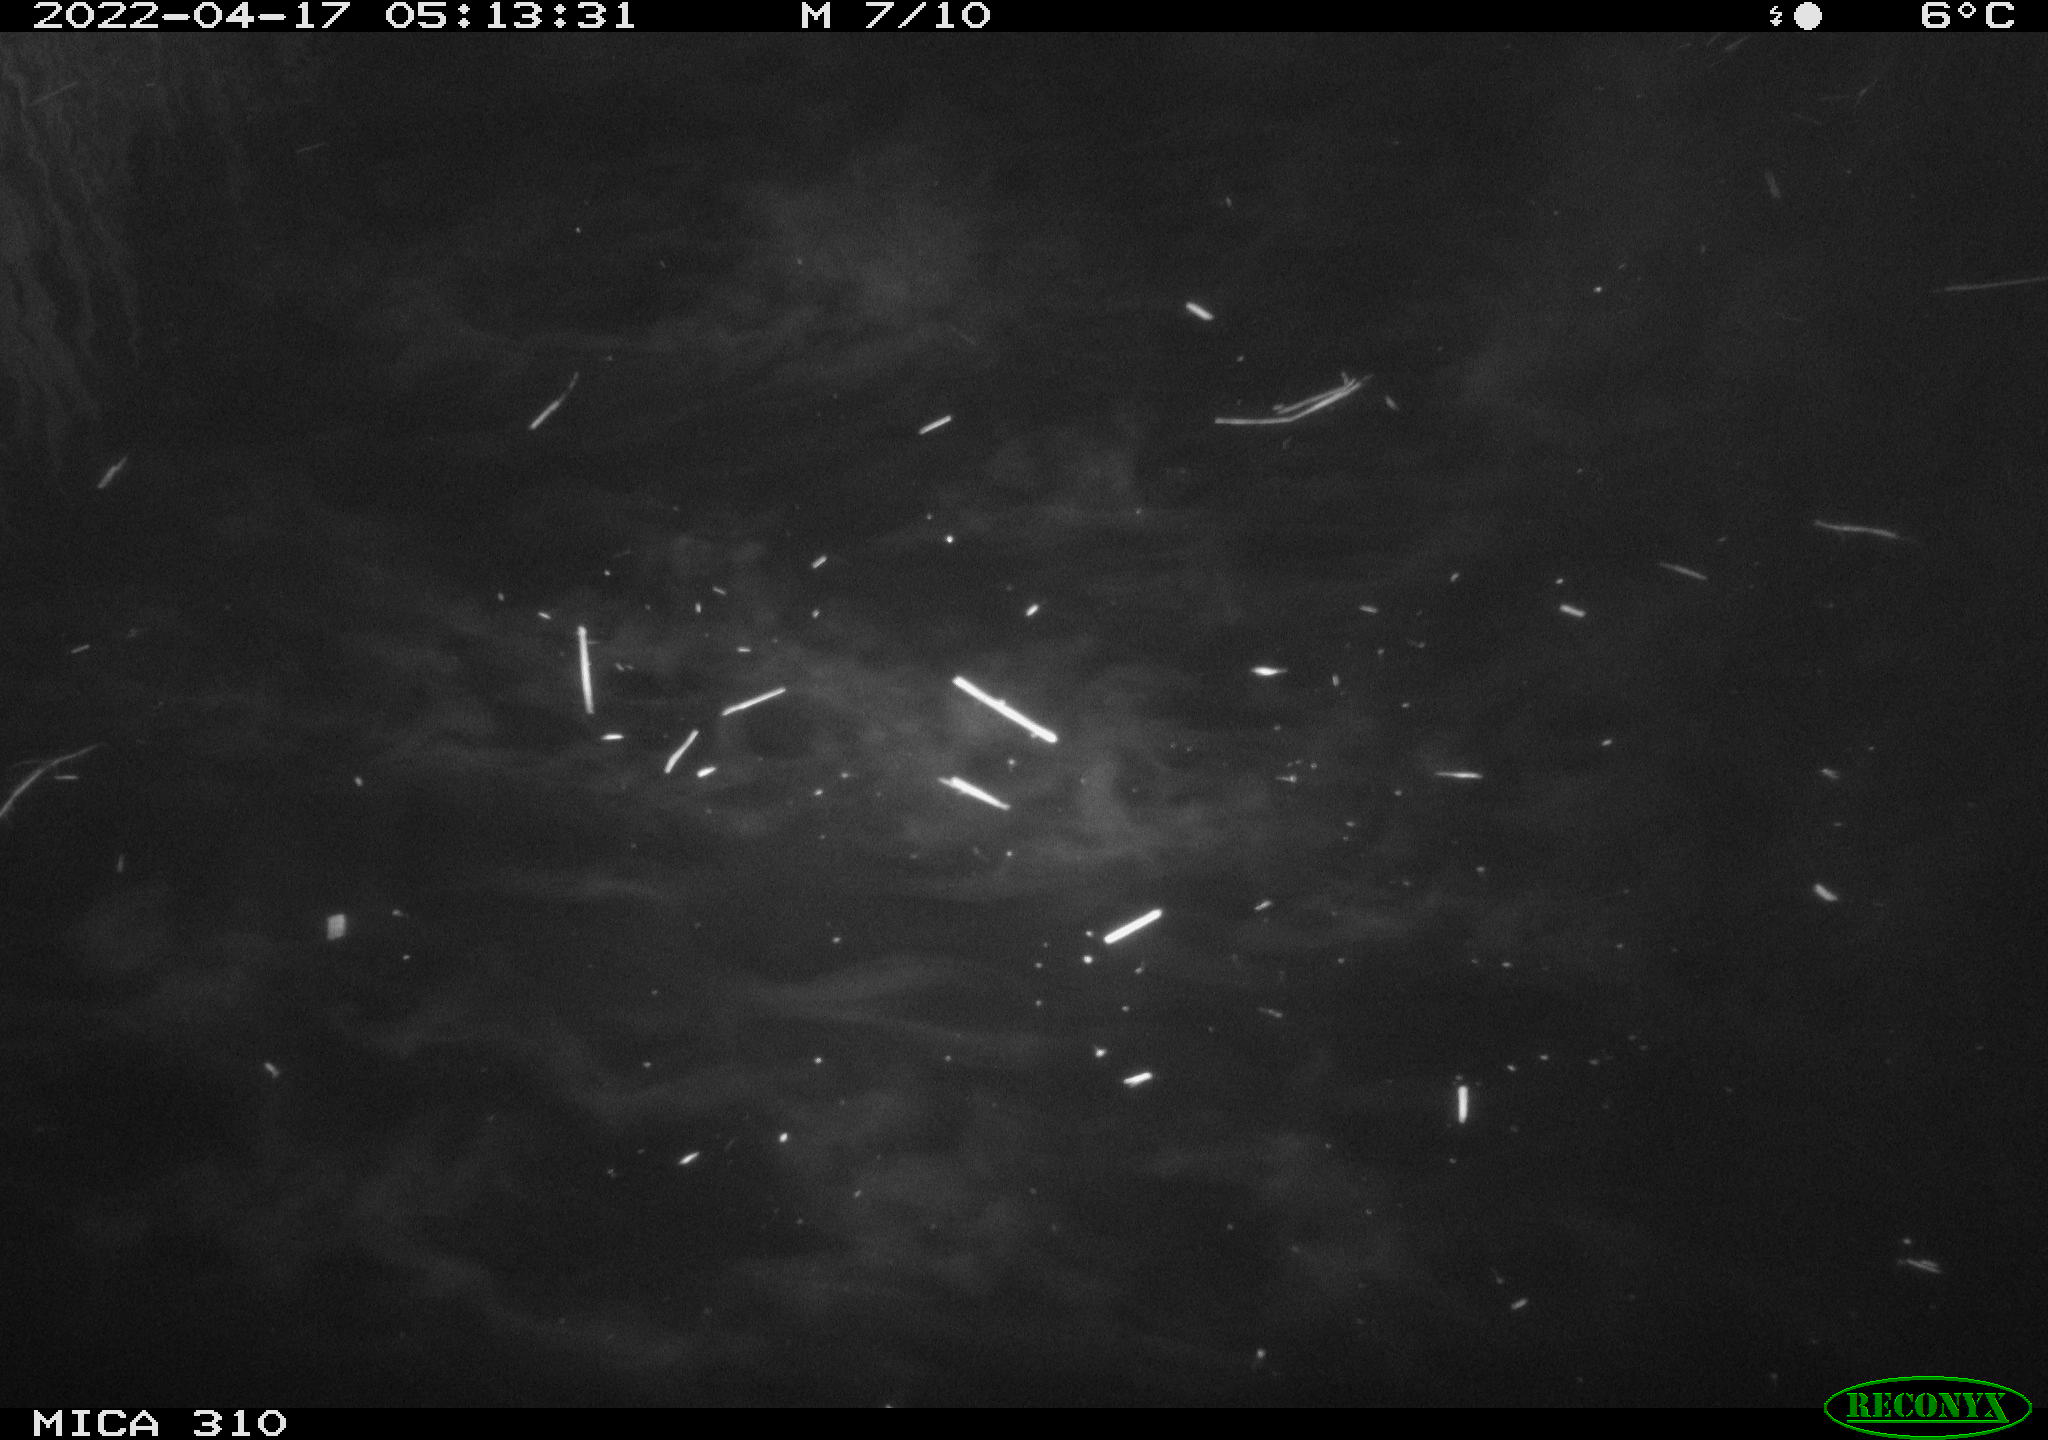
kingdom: Animalia
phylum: Chordata
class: Aves
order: Anseriformes
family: Anatidae
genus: Anas
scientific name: Anas platyrhynchos
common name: Mallard
